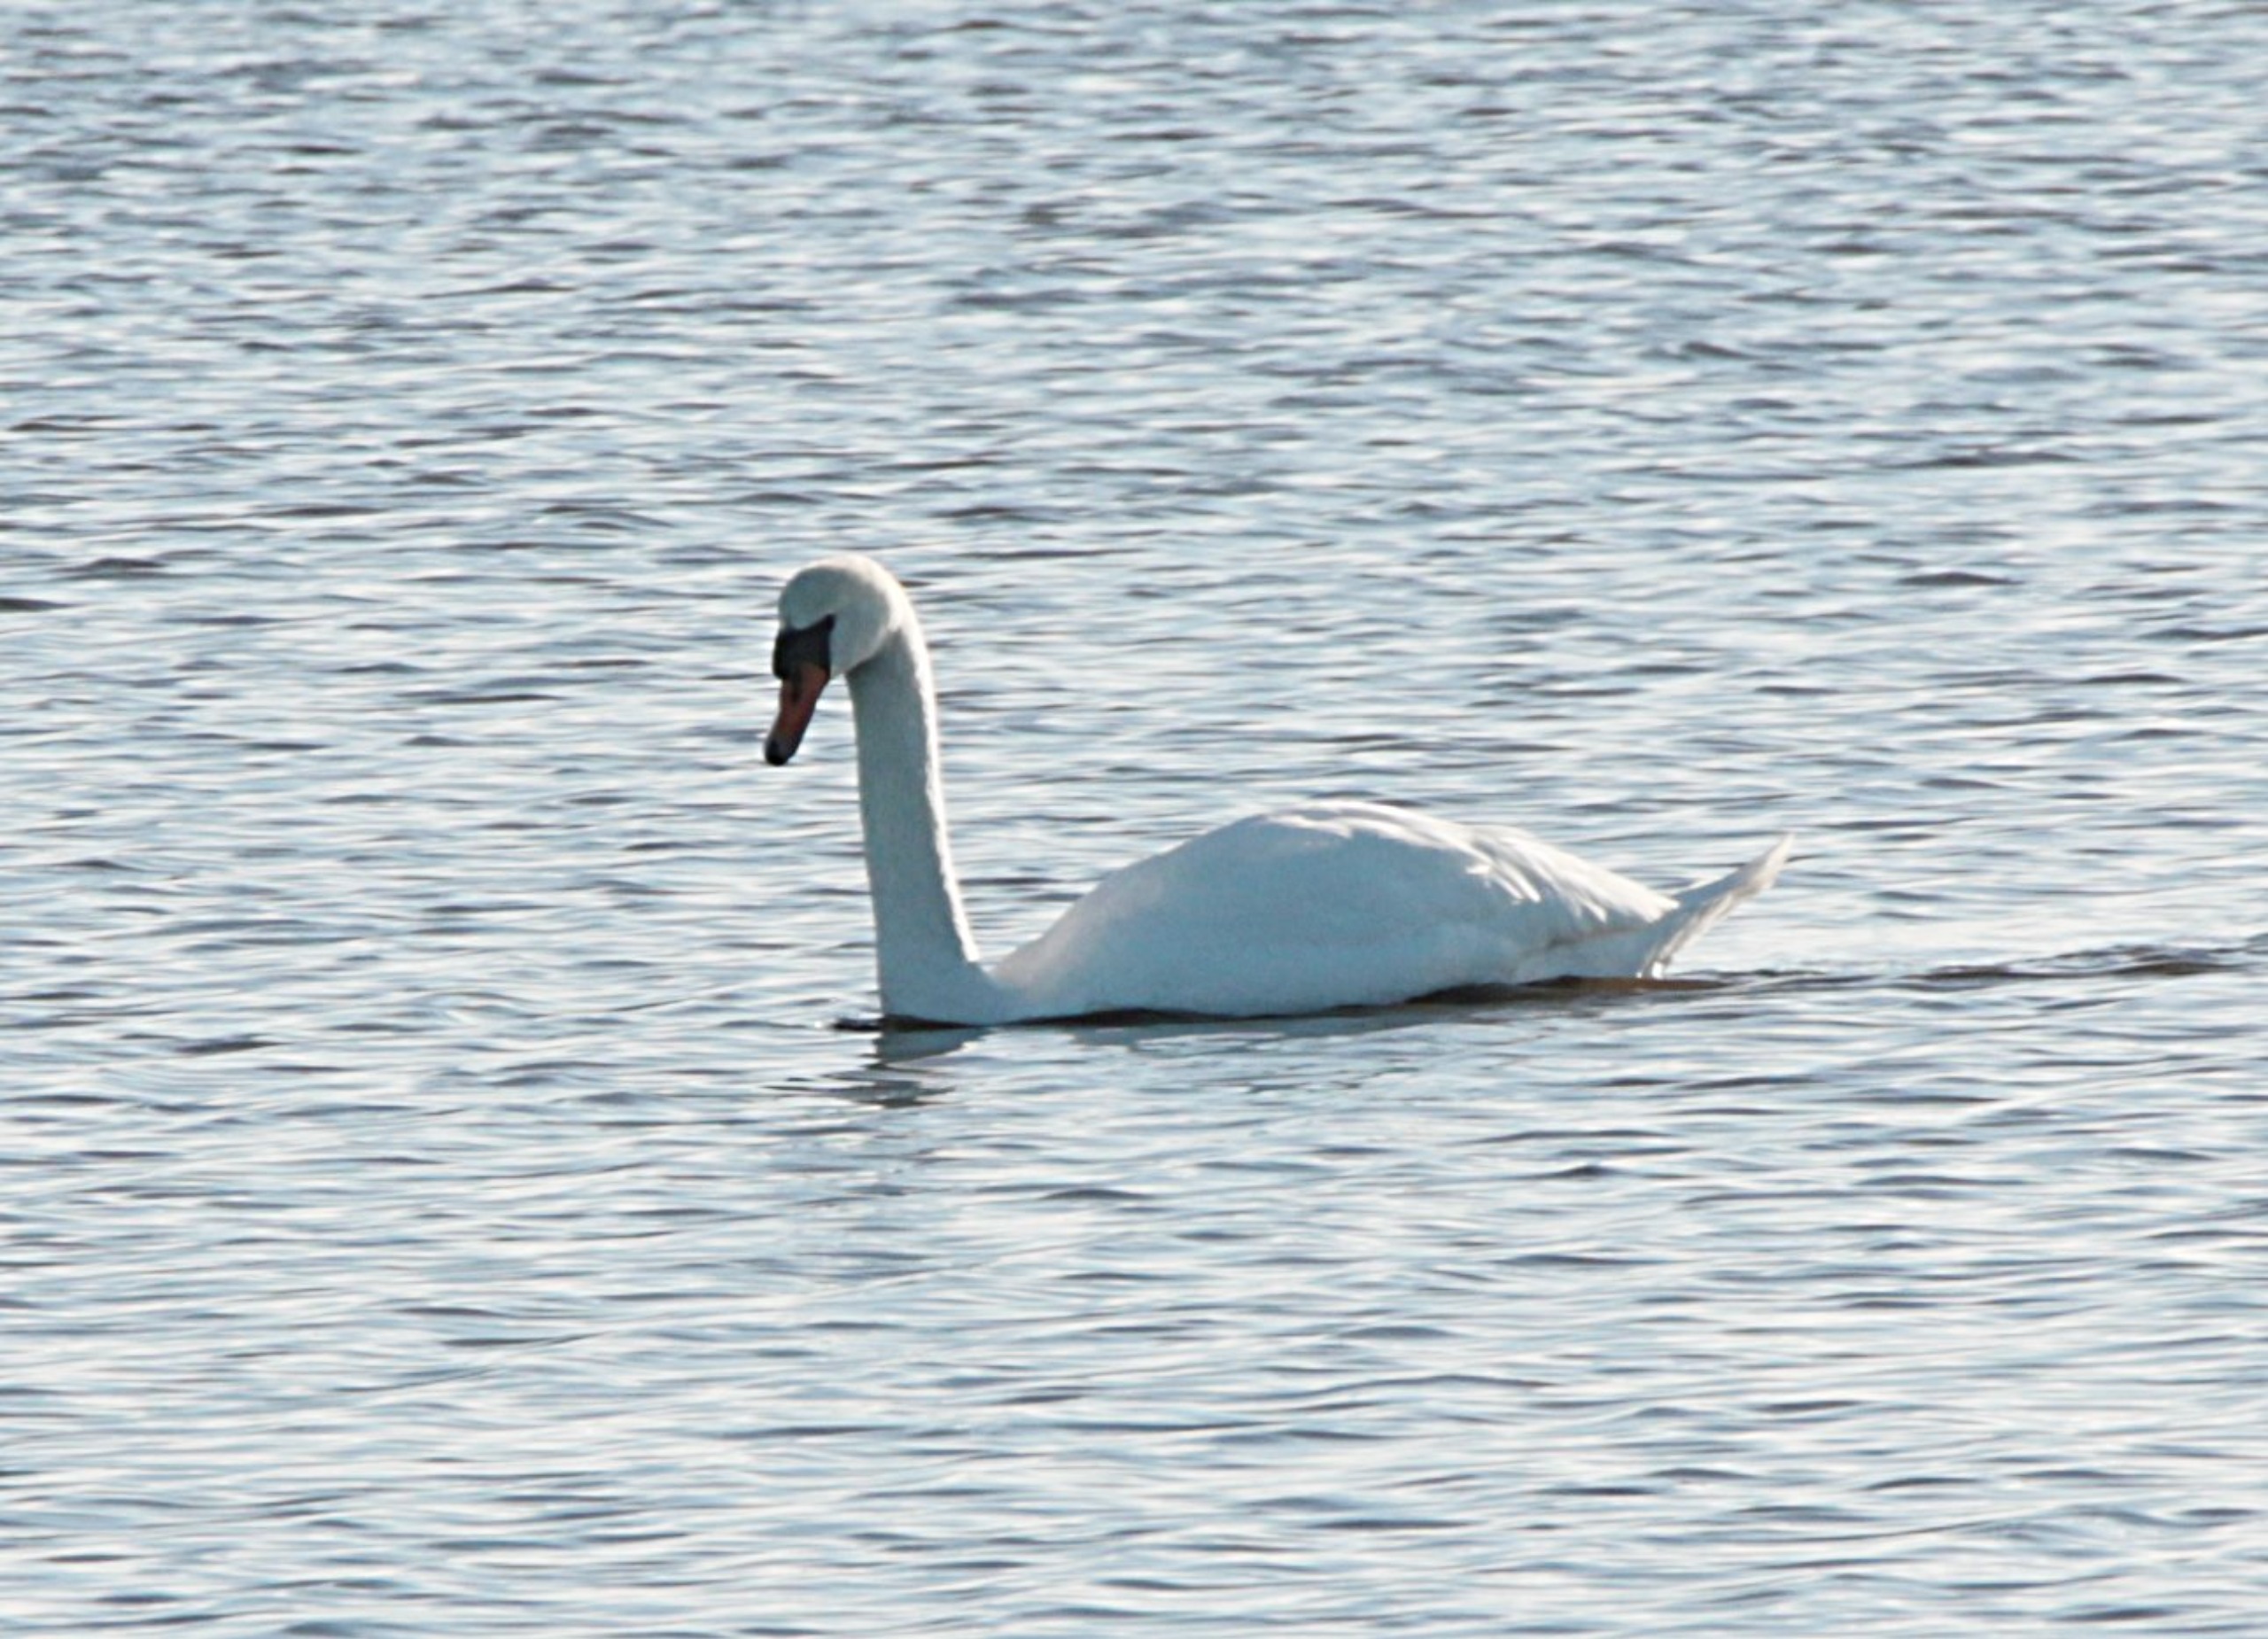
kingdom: Animalia
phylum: Chordata
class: Aves
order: Anseriformes
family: Anatidae
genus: Cygnus
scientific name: Cygnus olor
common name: Knopsvane
